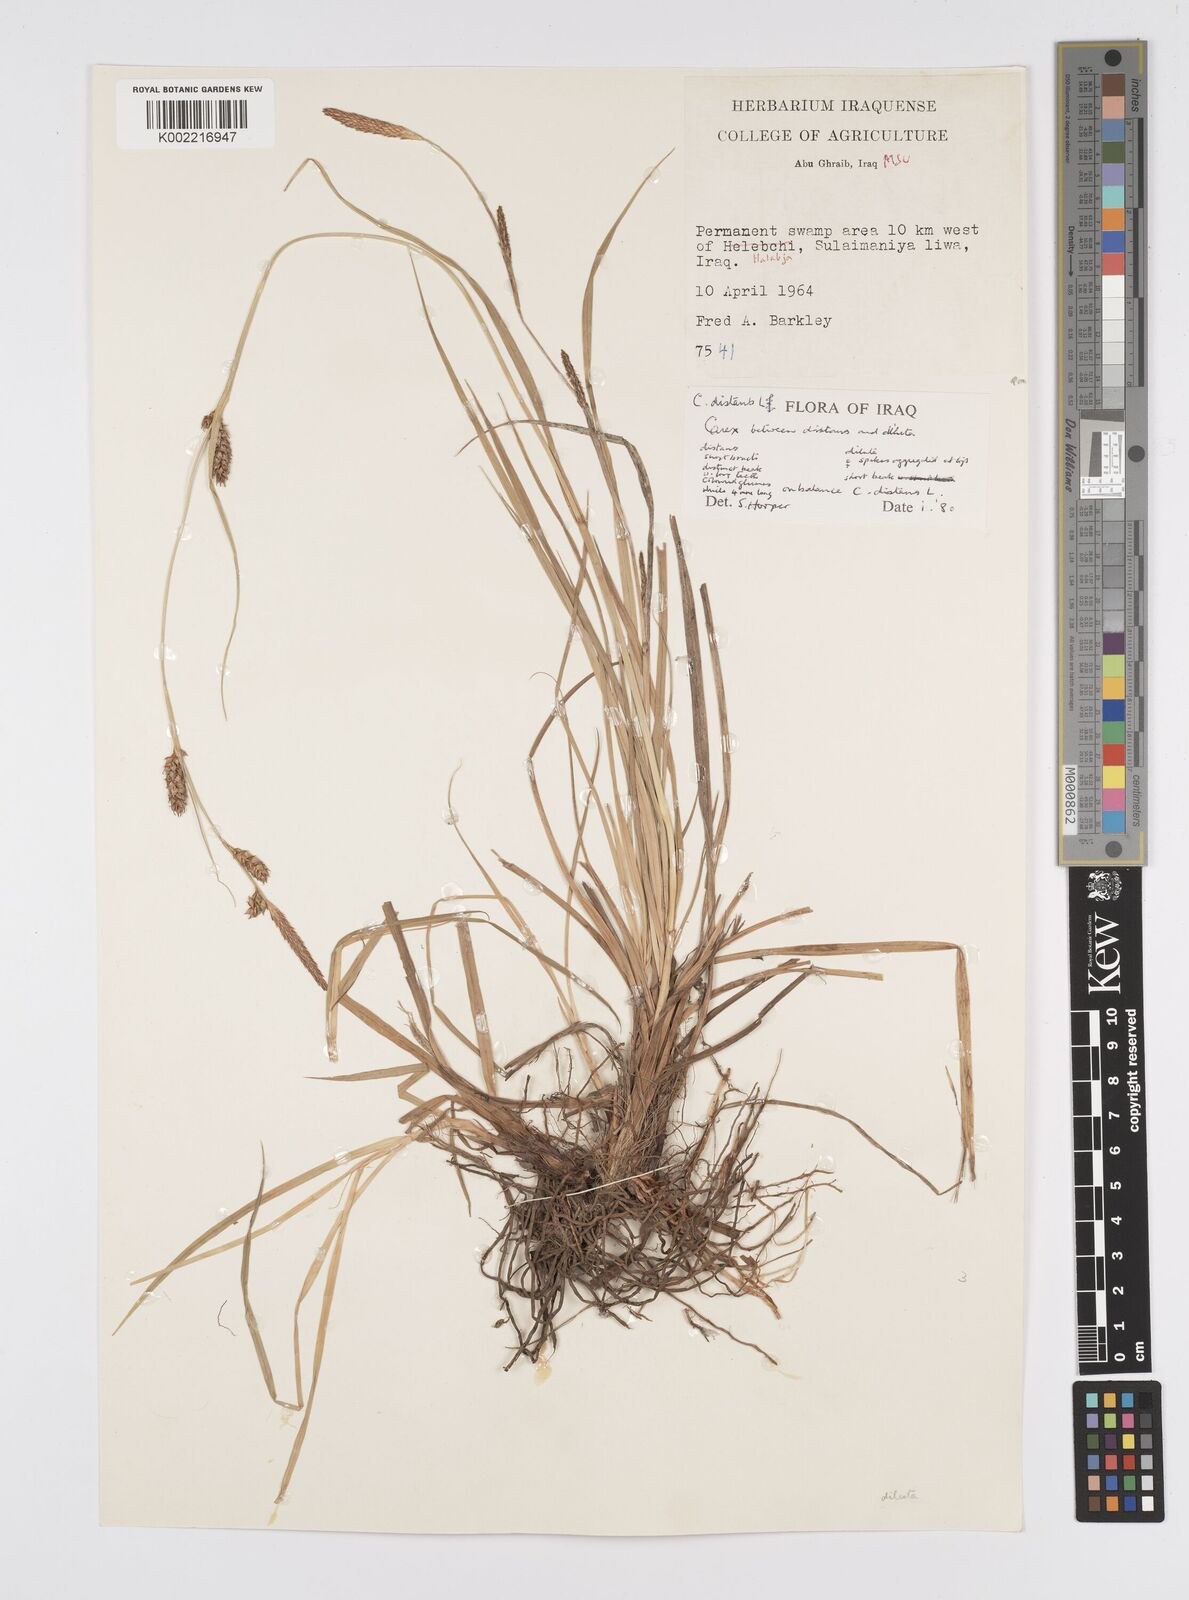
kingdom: Plantae
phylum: Tracheophyta
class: Liliopsida
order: Poales
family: Cyperaceae
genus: Carex
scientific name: Carex distans
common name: Distant sedge
